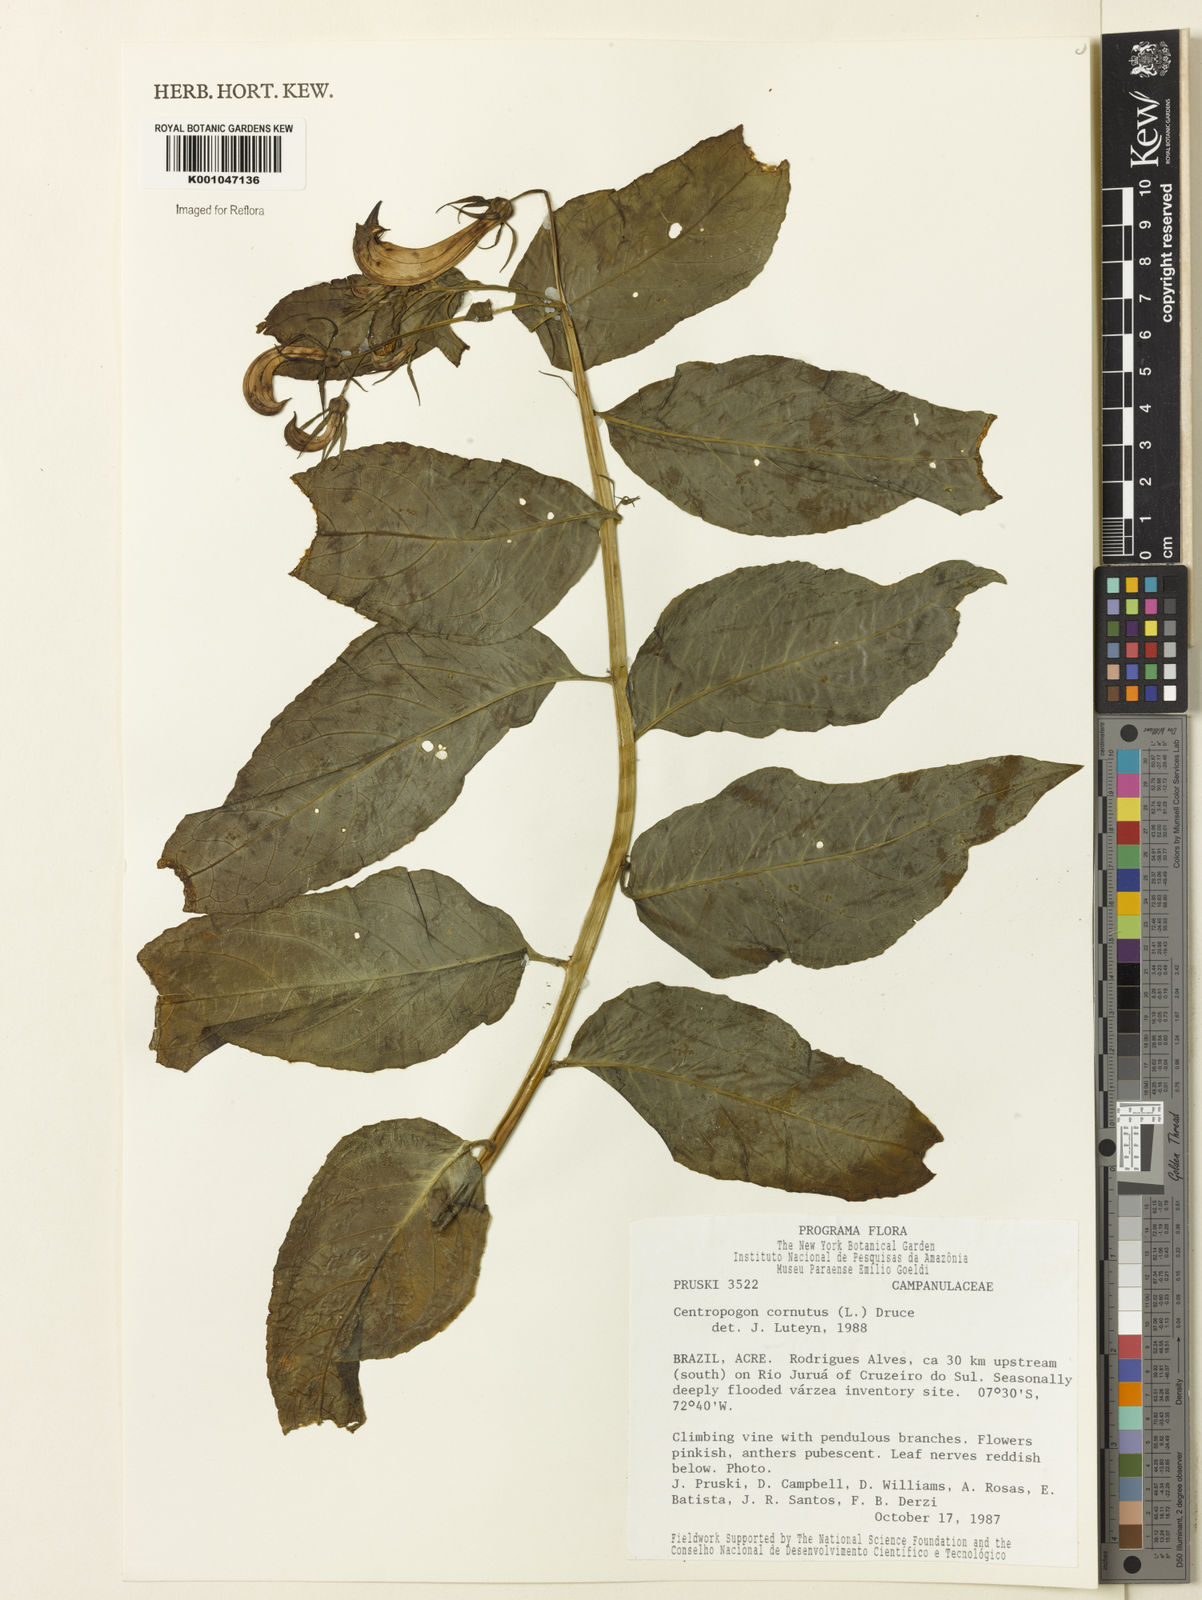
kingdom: Plantae
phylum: Tracheophyta
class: Magnoliopsida
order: Asterales
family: Campanulaceae
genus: Centropogon
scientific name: Centropogon cornutus
